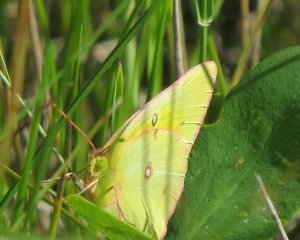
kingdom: Animalia
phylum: Arthropoda
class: Insecta
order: Lepidoptera
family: Pieridae
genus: Colias
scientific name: Colias philodice
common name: Clouded Sulphur
